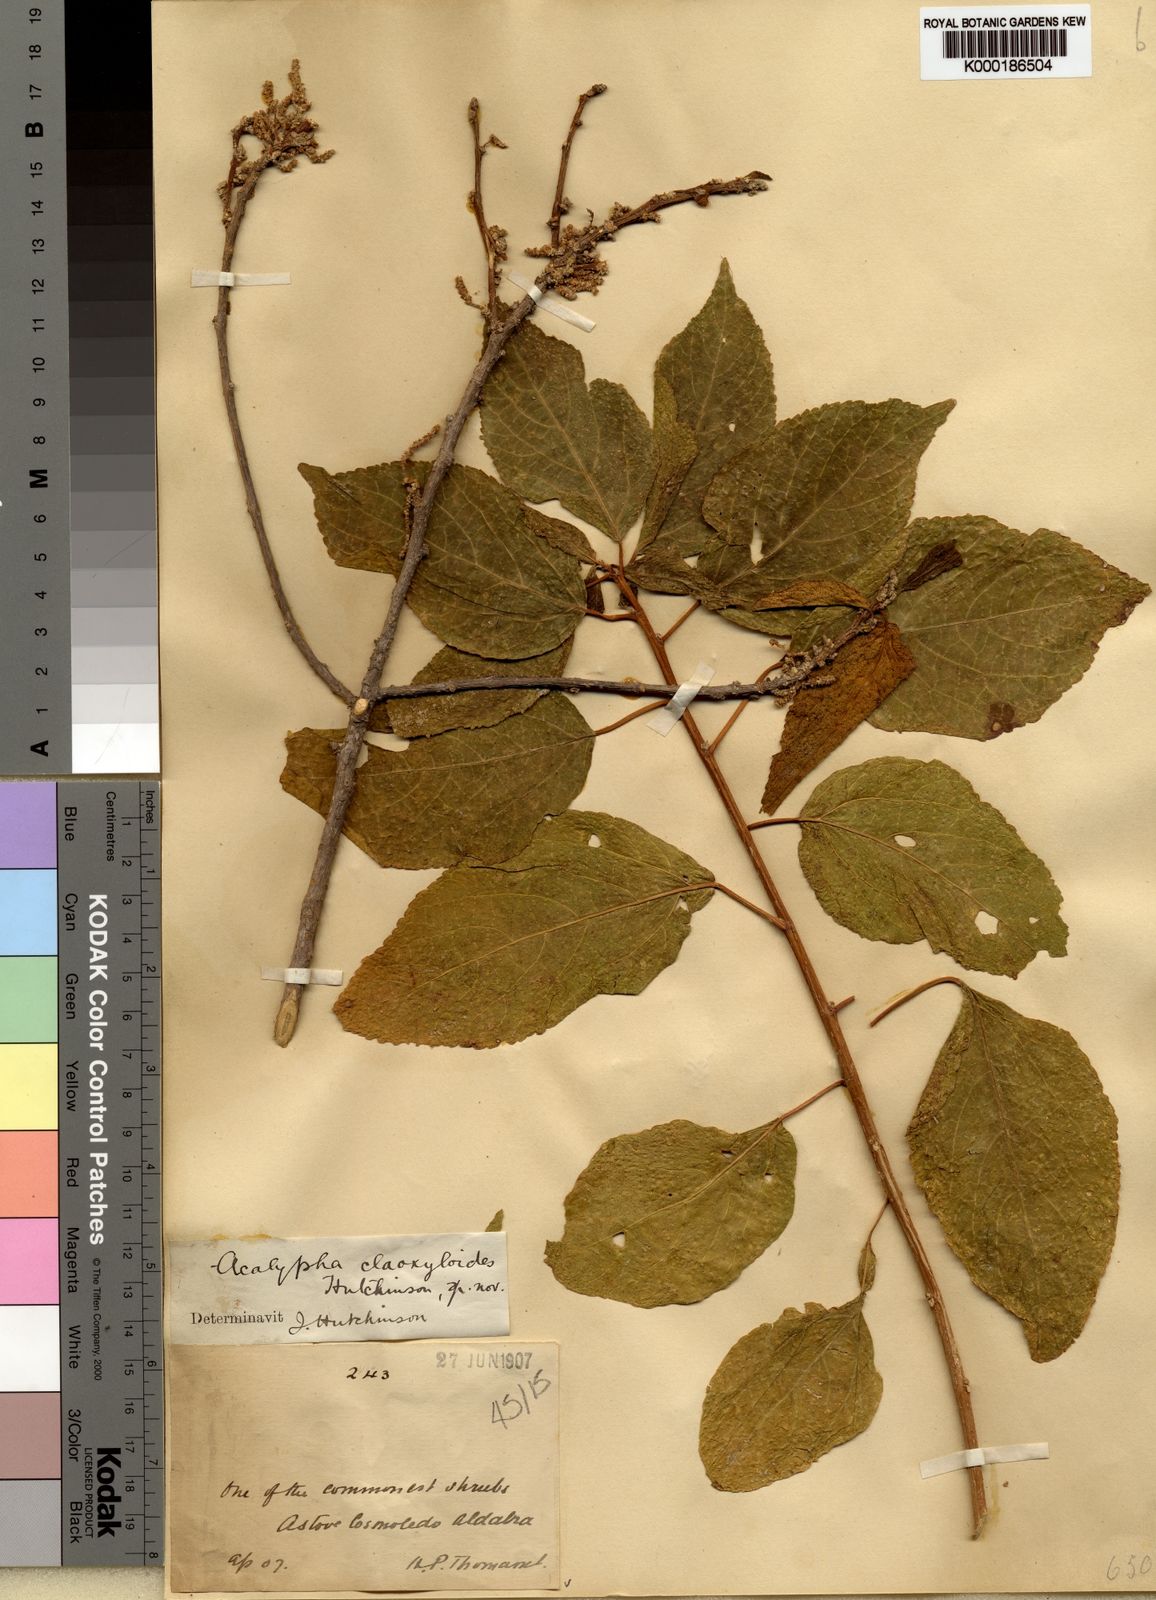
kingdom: Plantae
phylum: Tracheophyta
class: Magnoliopsida
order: Malpighiales
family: Euphorbiaceae
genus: Acalypha
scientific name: Acalypha claoxyloides
